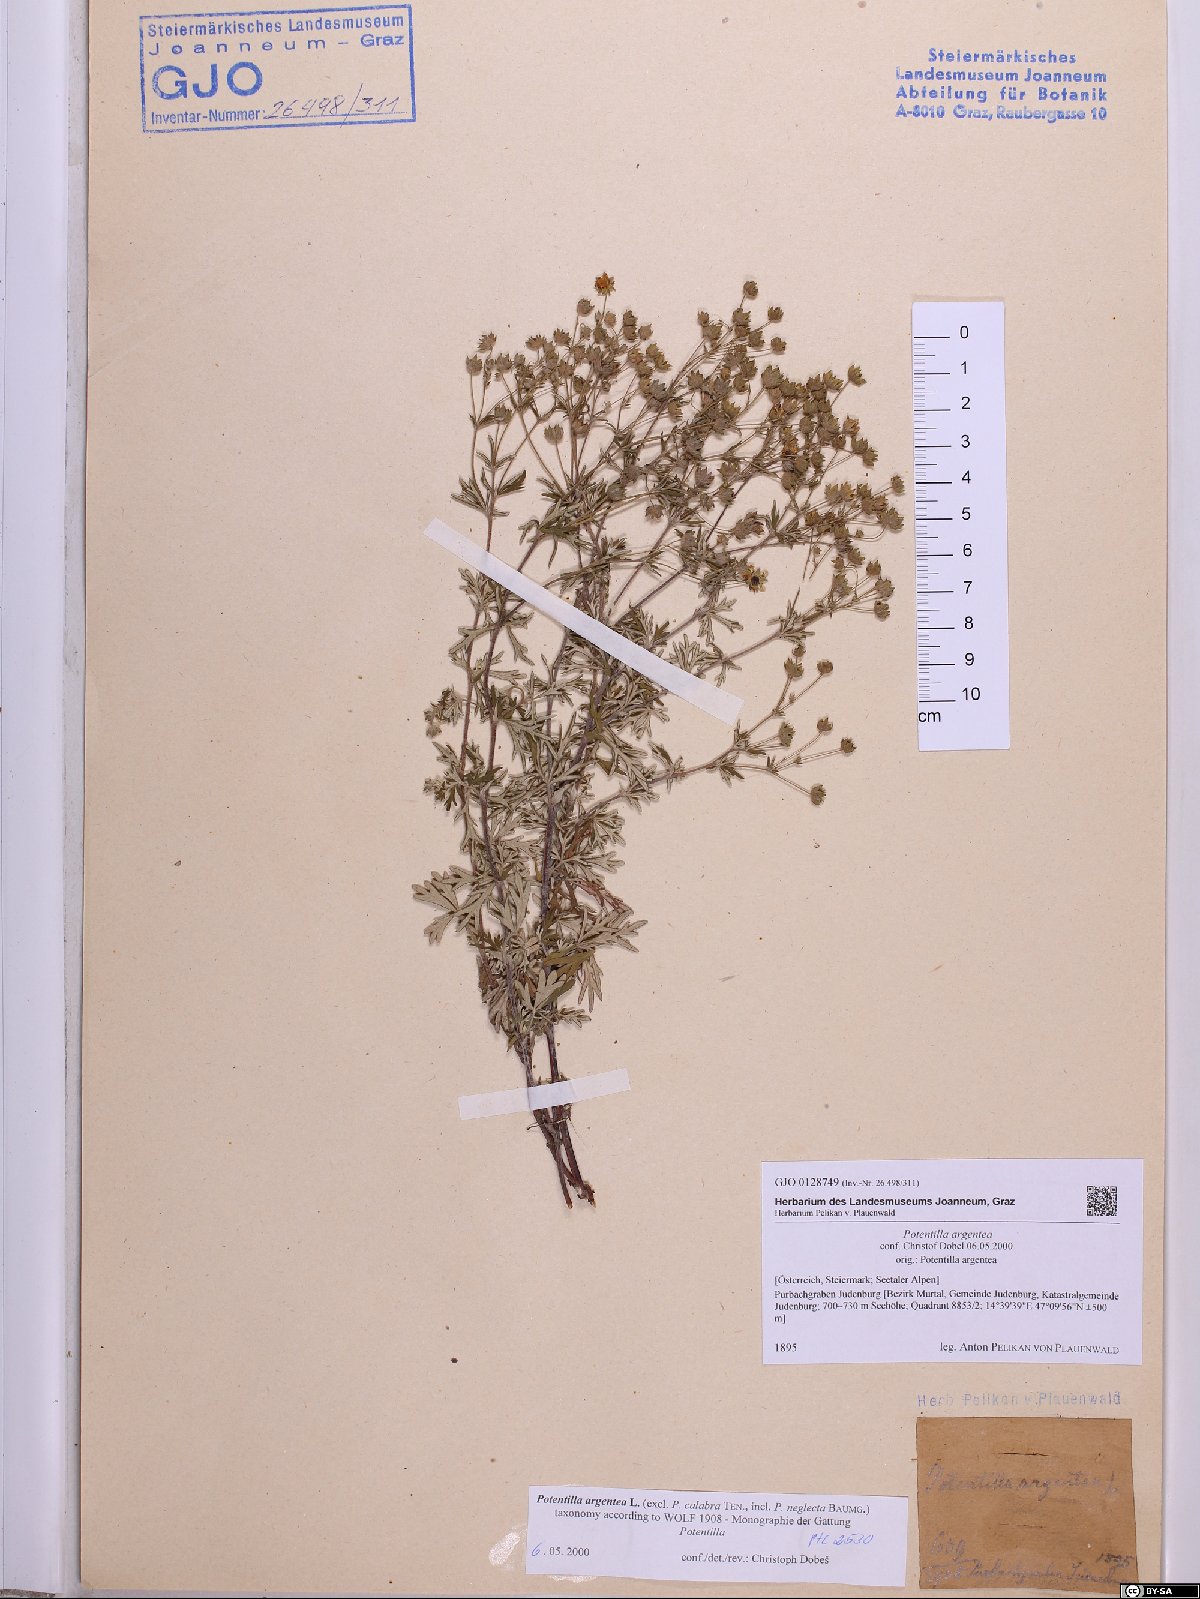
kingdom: Plantae
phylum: Tracheophyta
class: Magnoliopsida
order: Rosales
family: Rosaceae
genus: Potentilla
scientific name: Potentilla argentea
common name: Hoary cinquefoil
